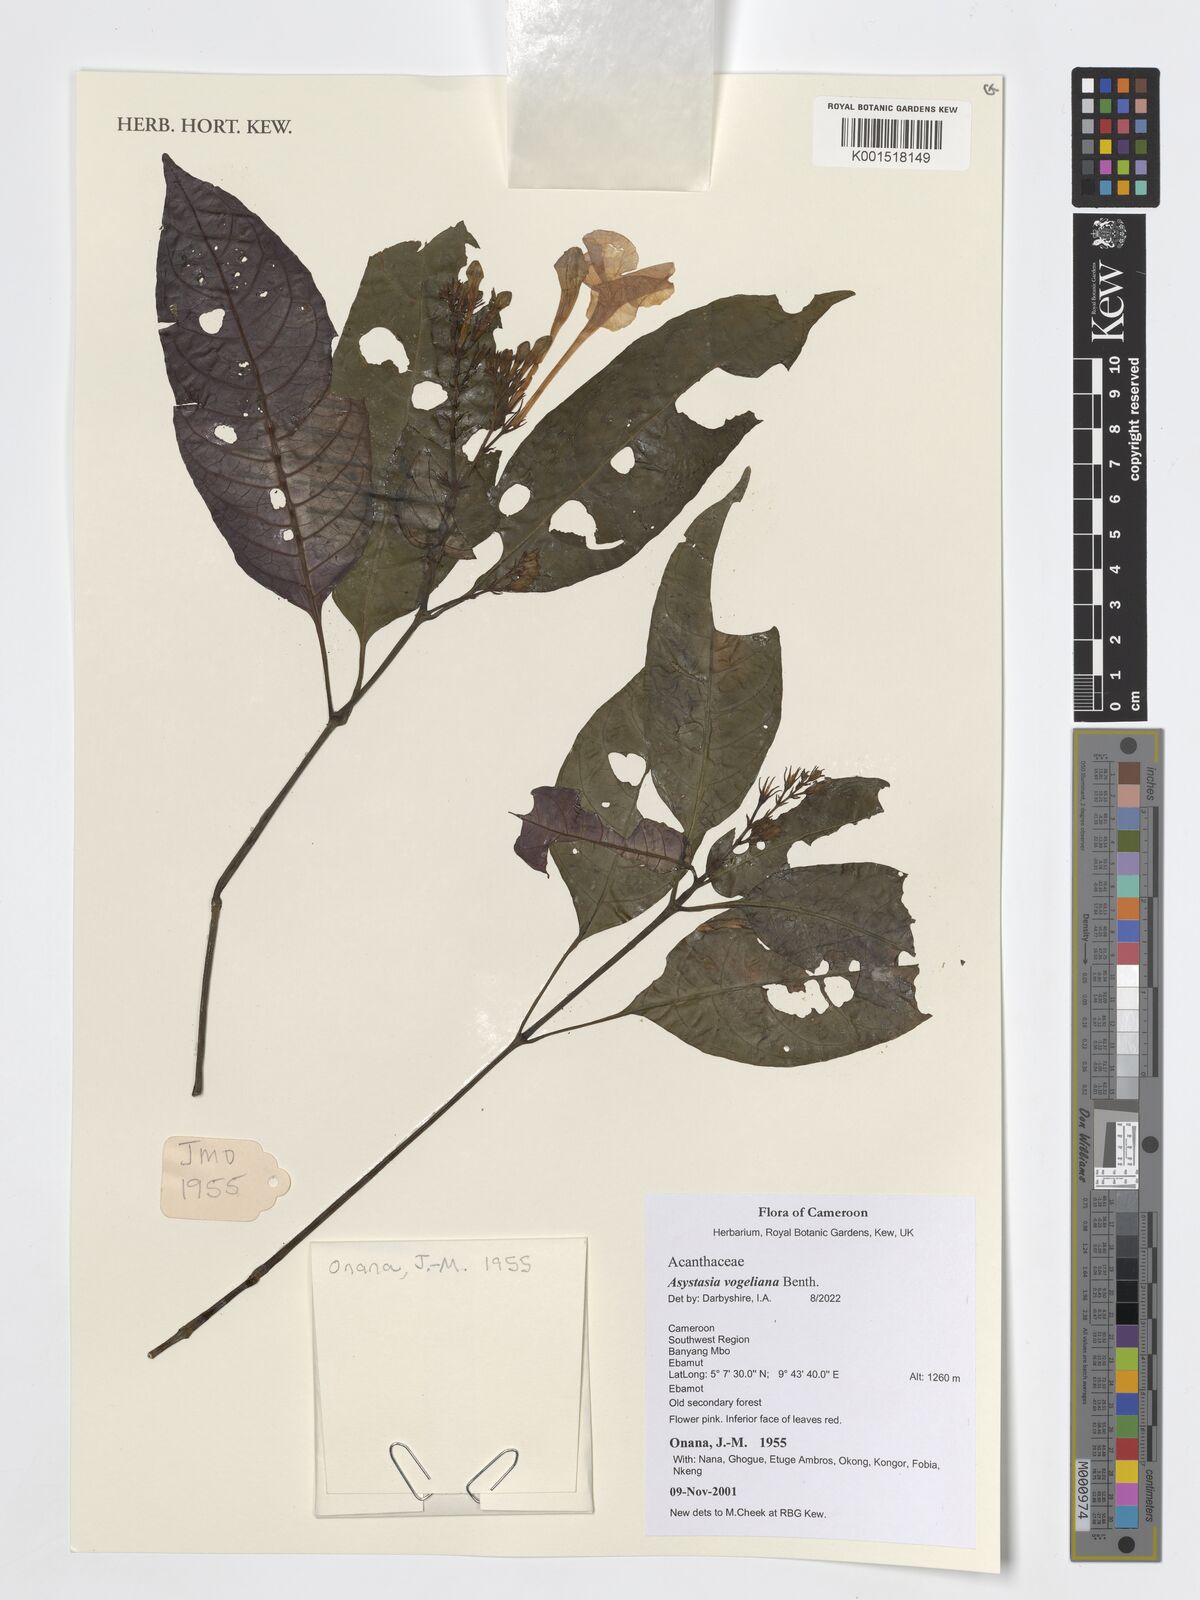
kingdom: Plantae
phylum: Tracheophyta
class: Magnoliopsida
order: Lamiales
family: Acanthaceae
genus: Asystasia
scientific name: Asystasia vogeliana
